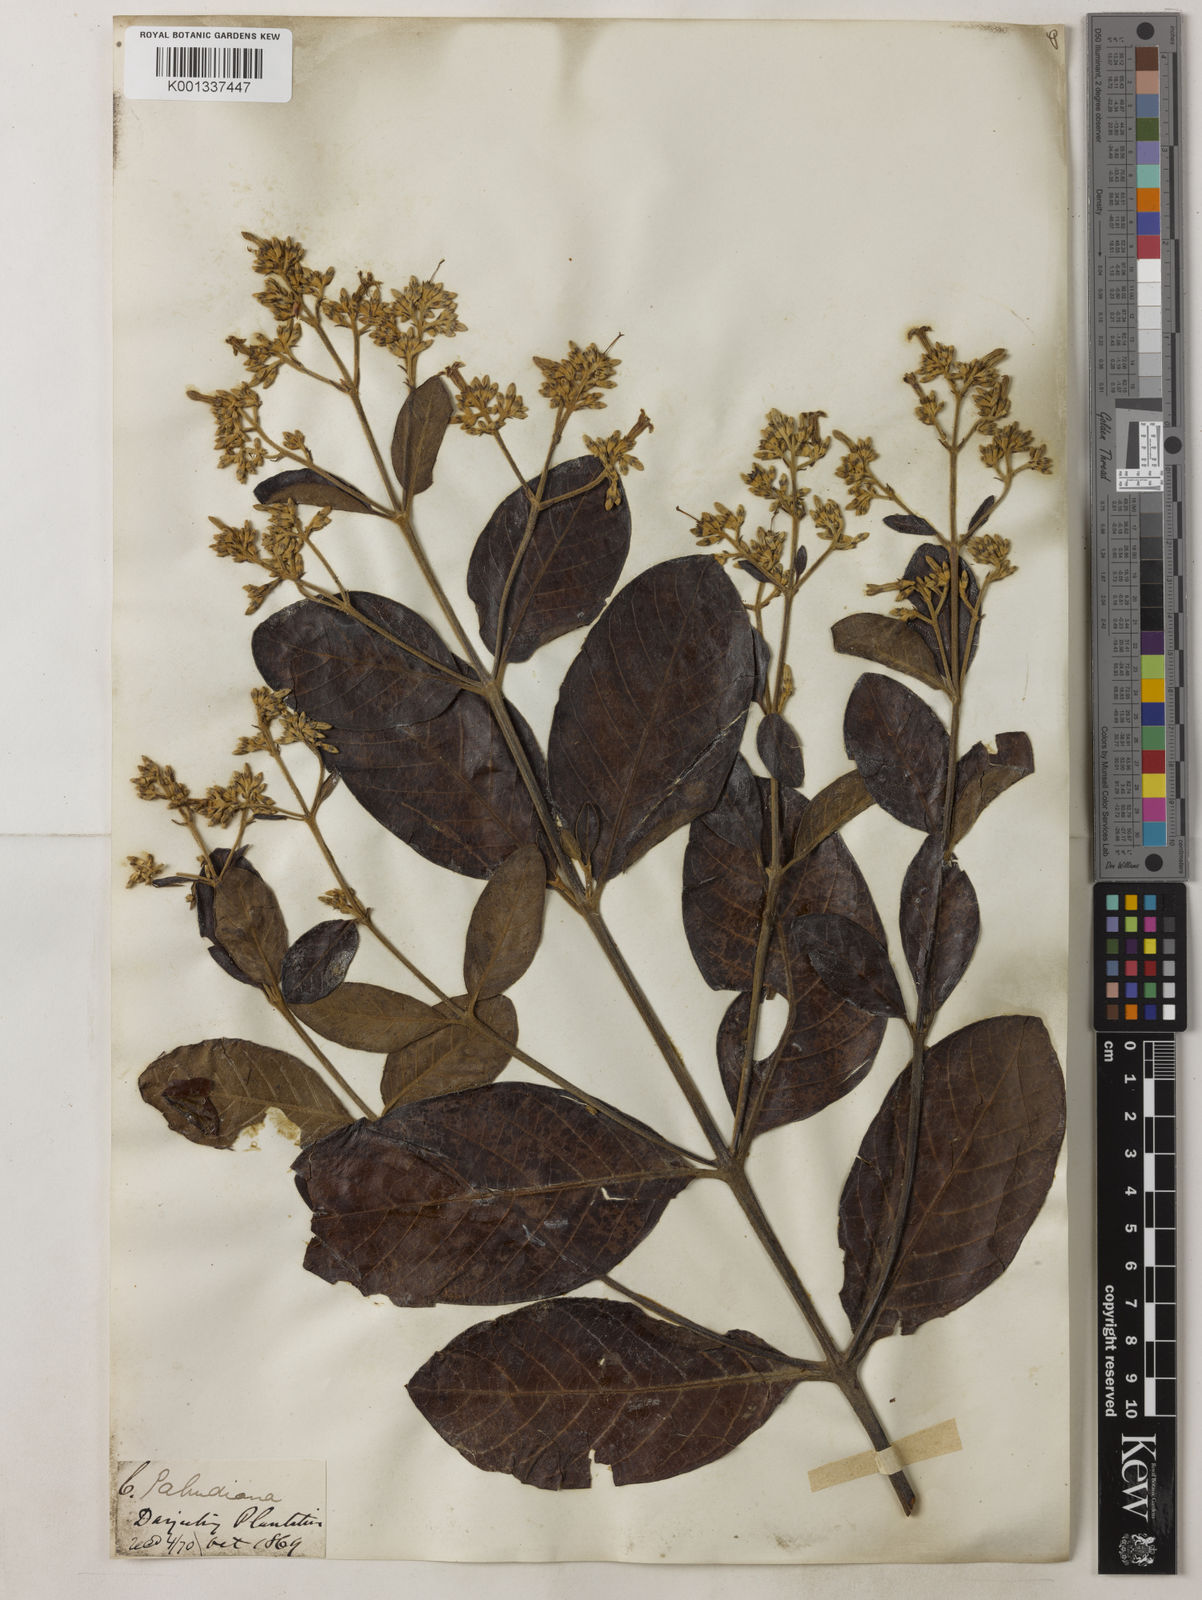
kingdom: Plantae
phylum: Tracheophyta
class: Magnoliopsida
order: Gentianales
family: Rubiaceae
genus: Cinchona
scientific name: Cinchona calisaya
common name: Ledgerbark
